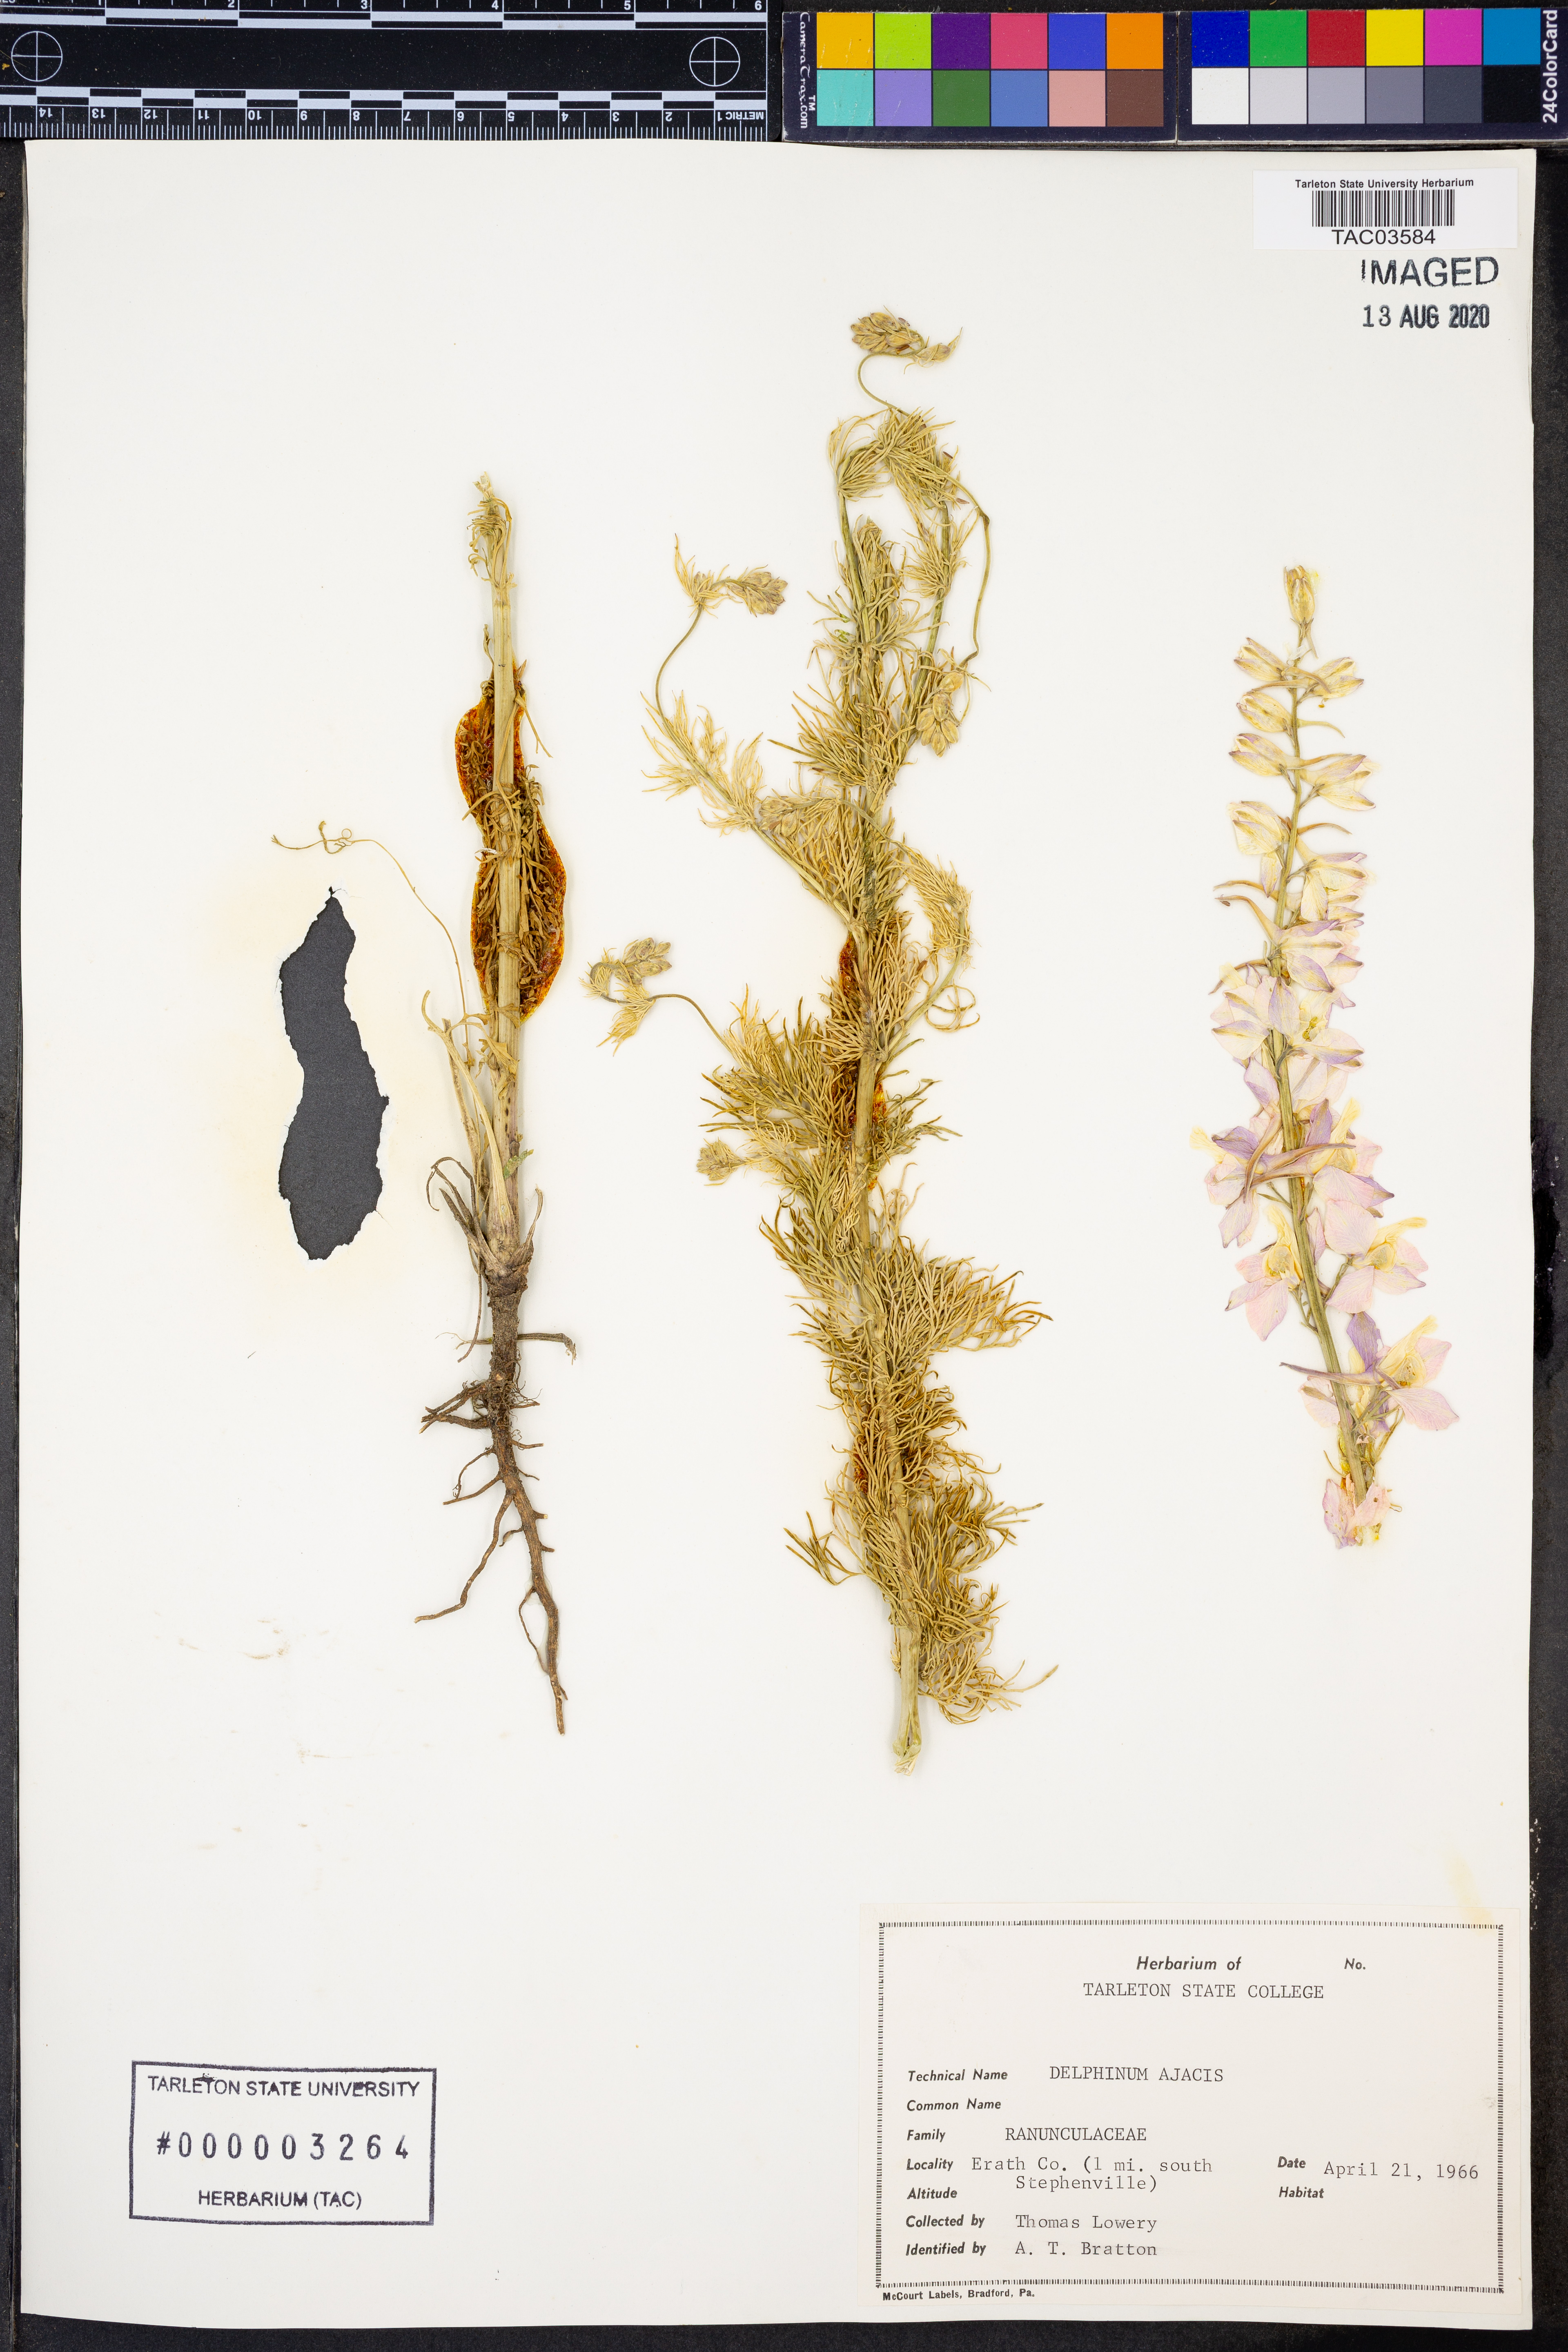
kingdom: Plantae
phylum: Tracheophyta
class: Magnoliopsida
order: Ranunculales
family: Ranunculaceae
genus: Delphinium
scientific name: Delphinium ajacis
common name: Doubtful knight's-spur
